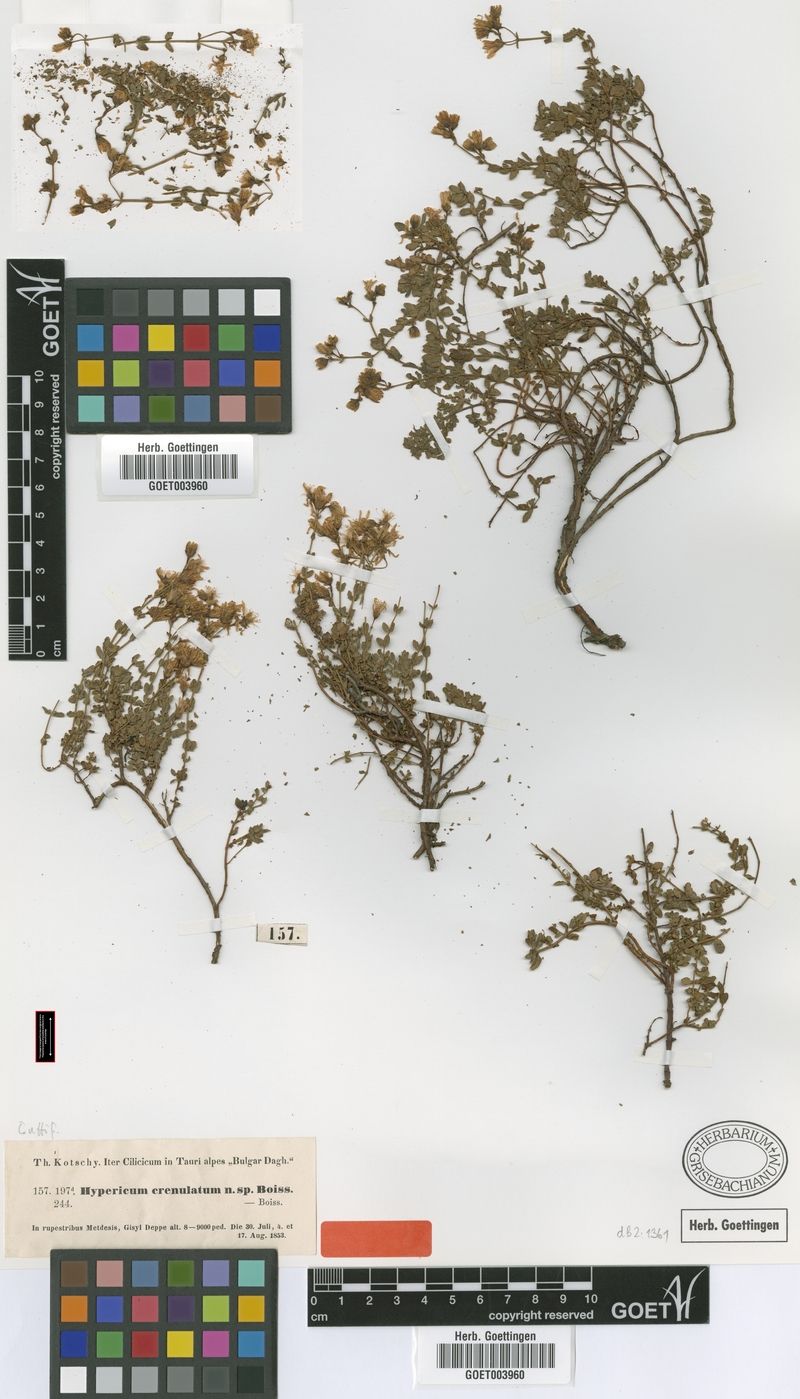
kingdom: Plantae
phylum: Tracheophyta
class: Magnoliopsida
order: Malpighiales
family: Hypericaceae
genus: Hypericum
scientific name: Hypericum crenulatum
